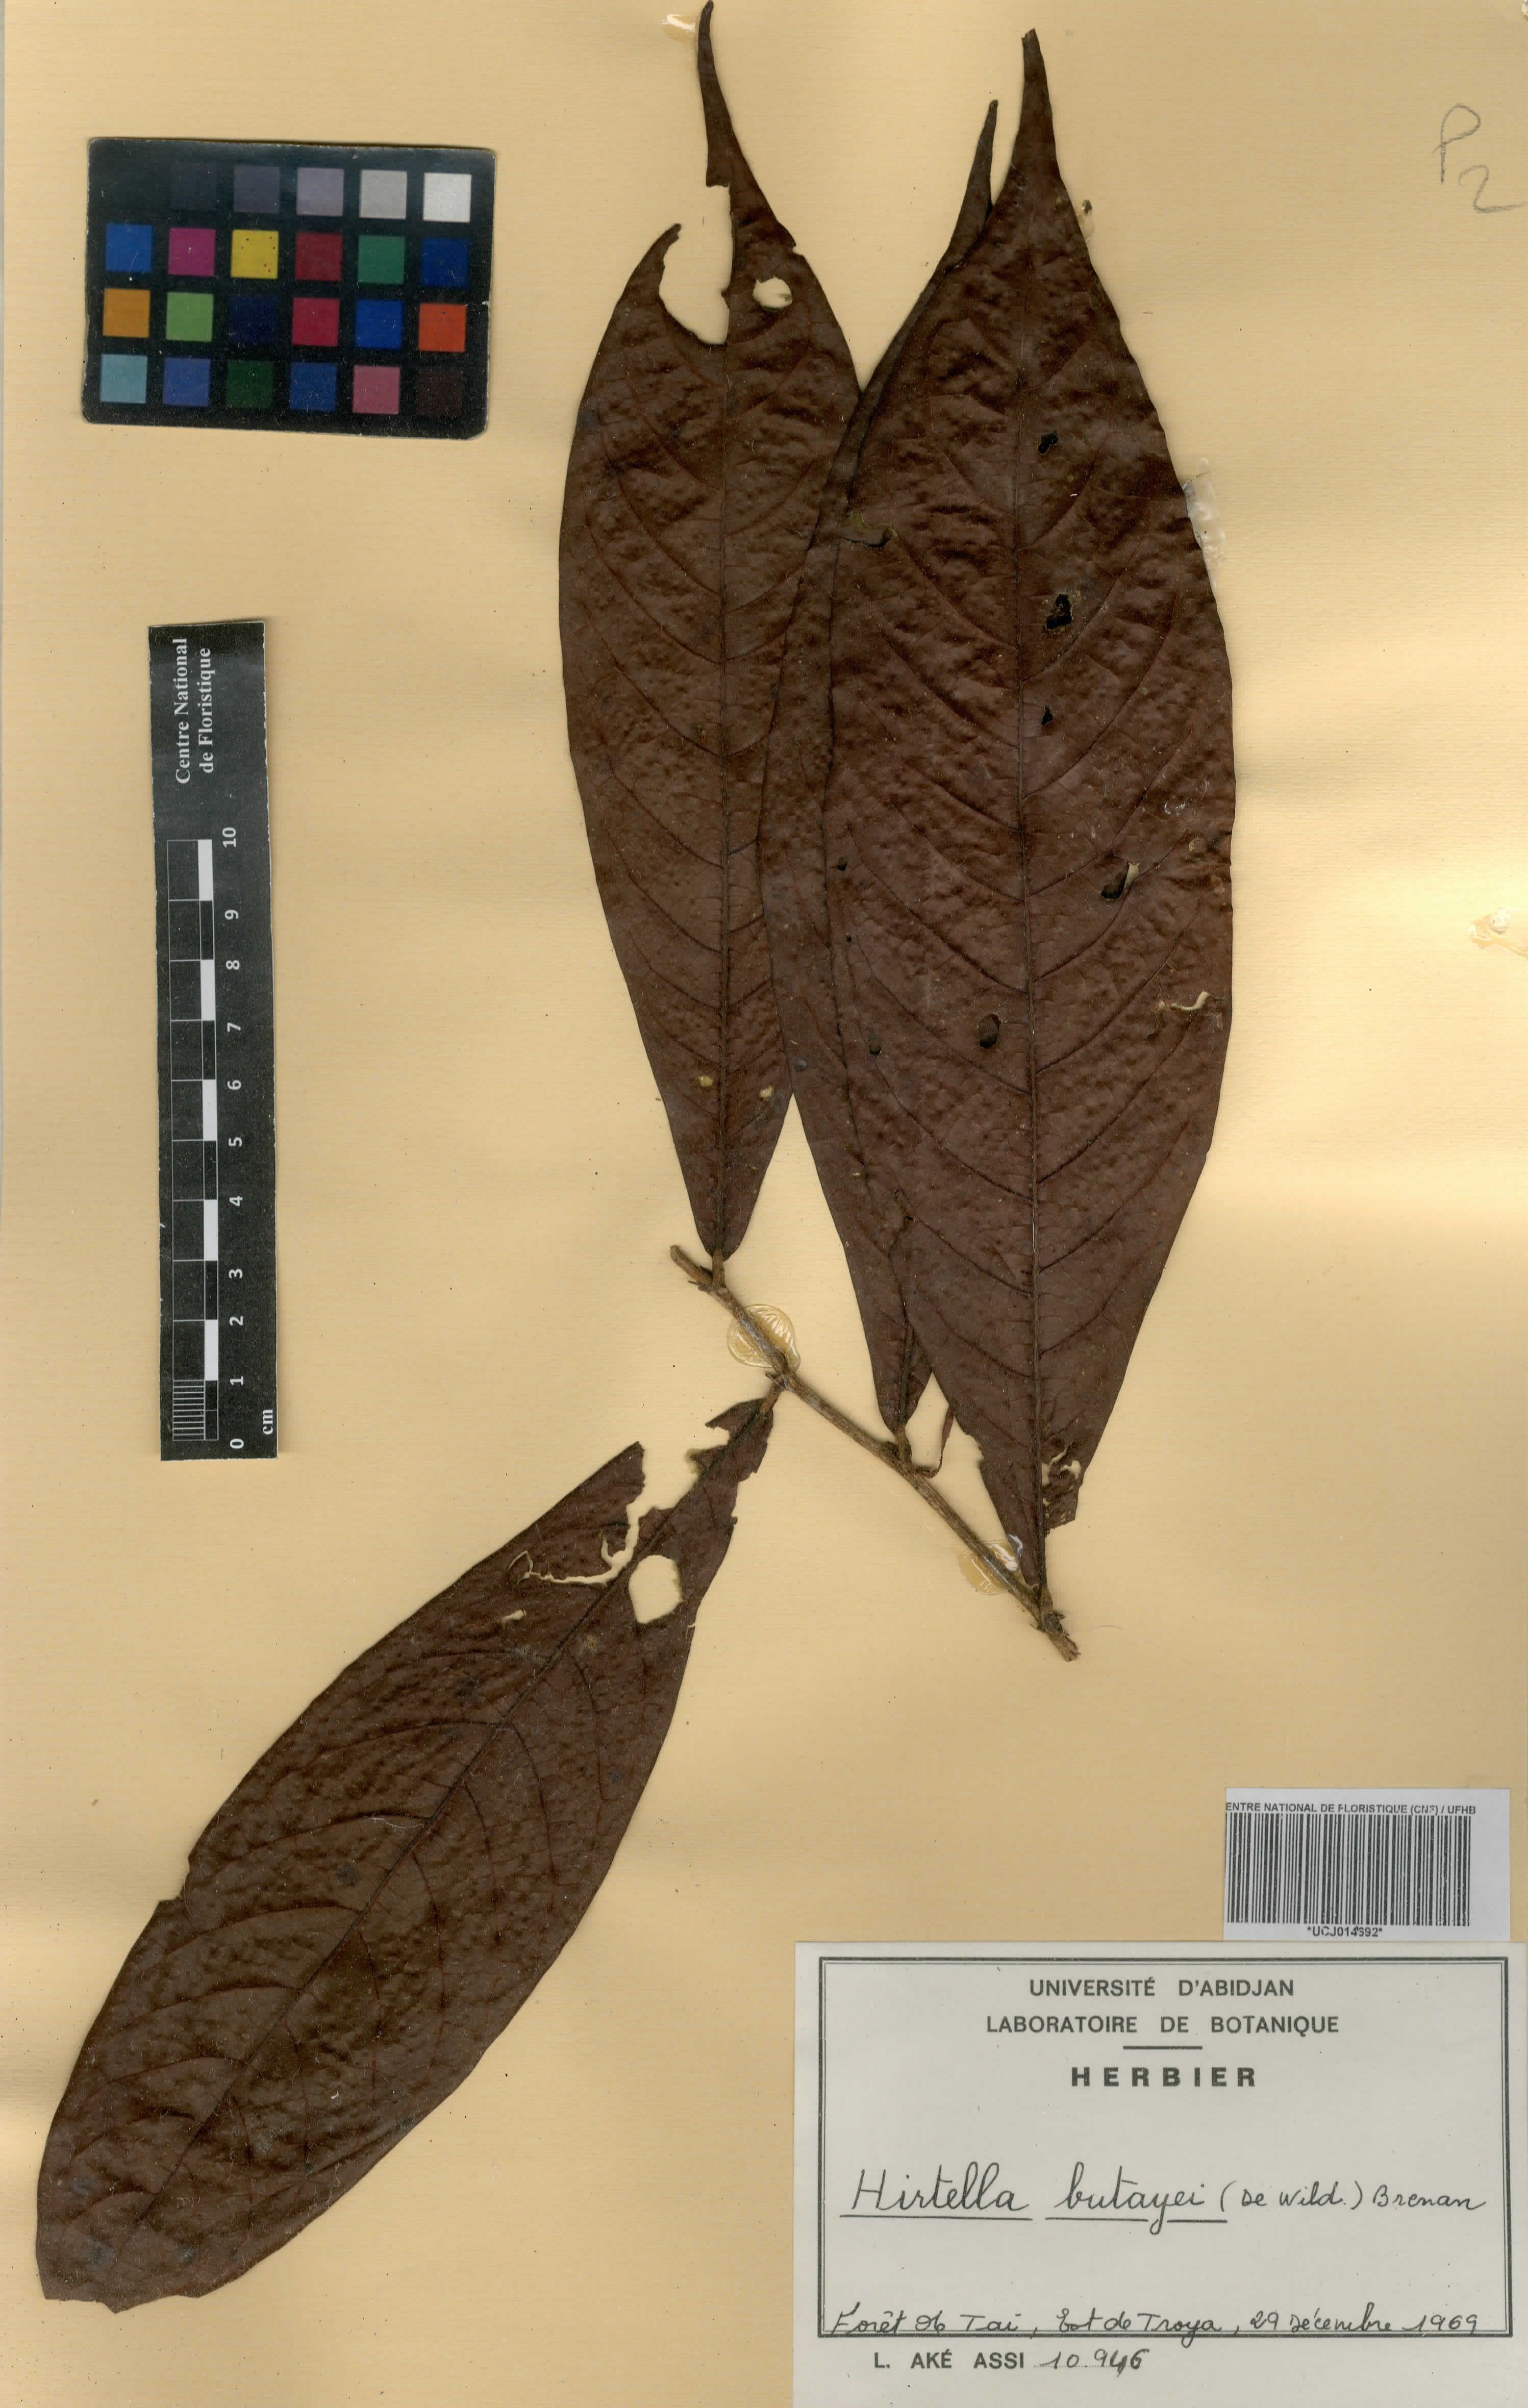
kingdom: Plantae
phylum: Tracheophyta
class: Magnoliopsida
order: Malpighiales
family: Chrysobalanaceae
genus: Magnistipula
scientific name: Magnistipula butayei
